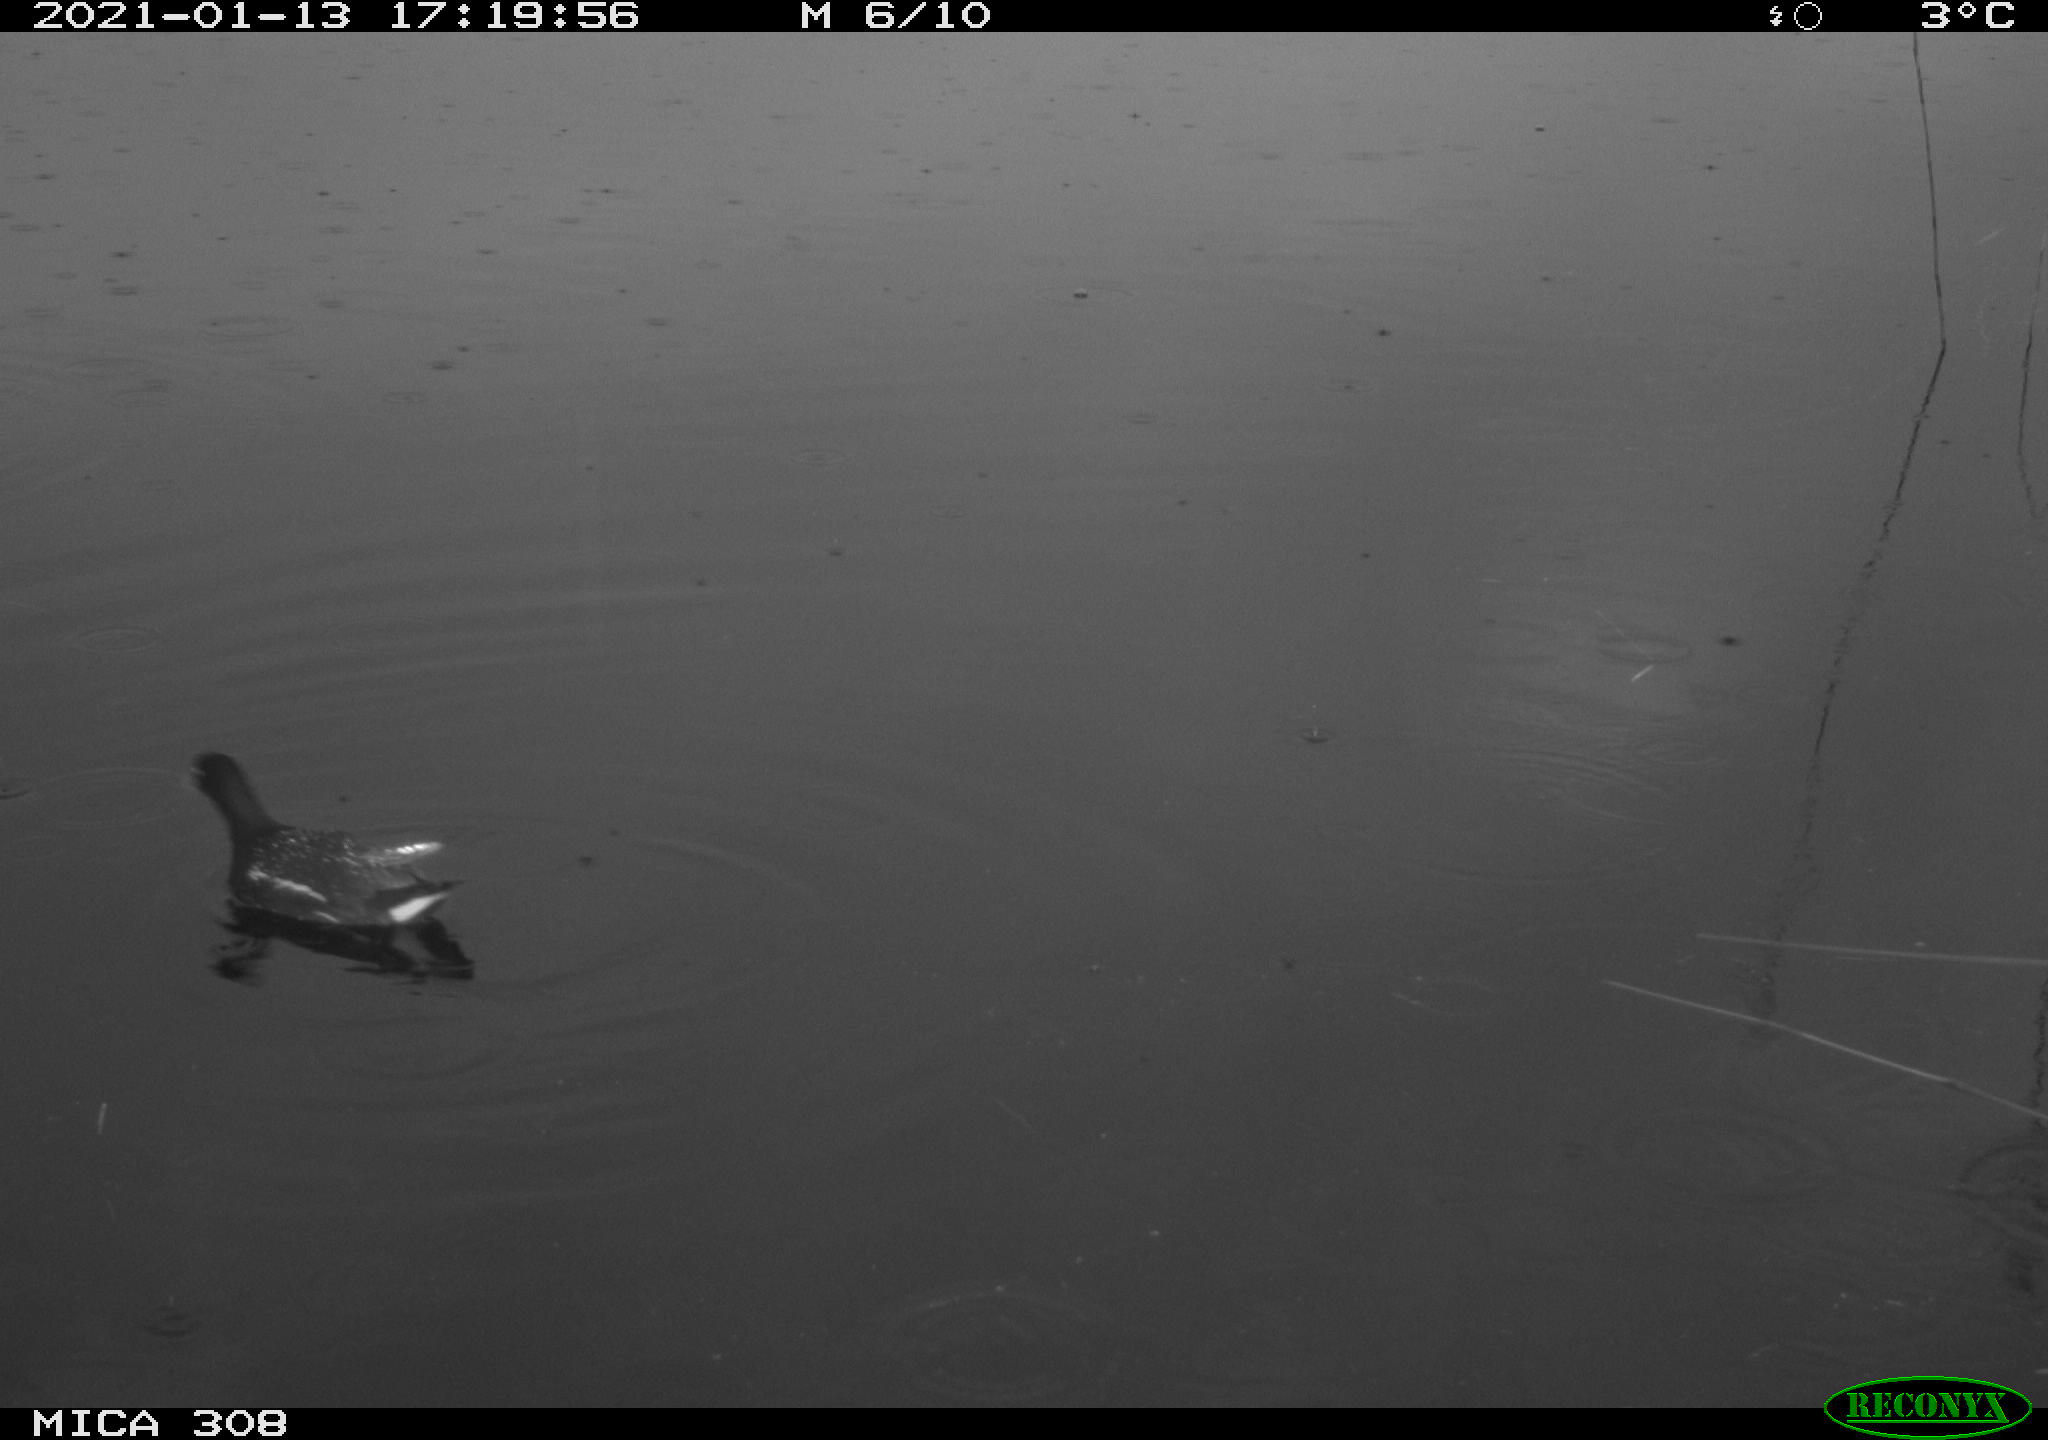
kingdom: Animalia
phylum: Chordata
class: Aves
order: Gruiformes
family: Rallidae
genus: Gallinula
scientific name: Gallinula chloropus
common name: Common moorhen
